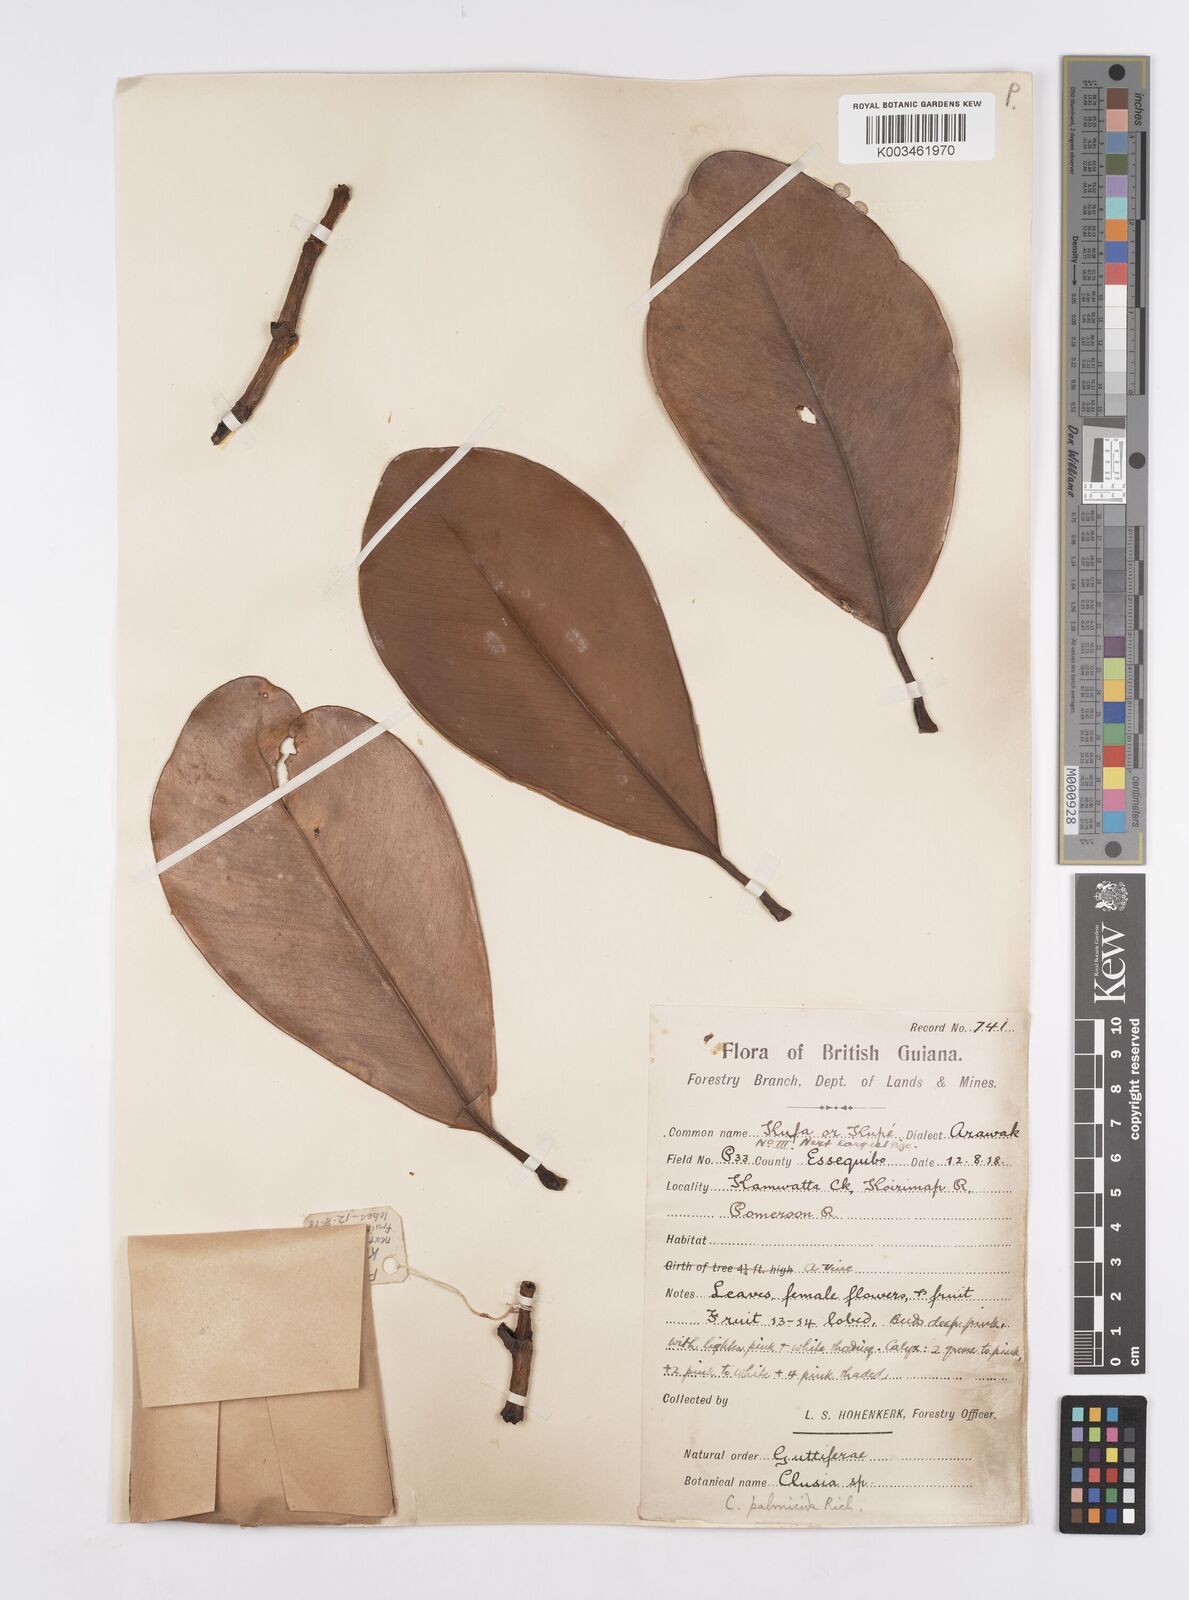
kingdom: Plantae
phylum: Tracheophyta
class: Magnoliopsida
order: Malpighiales
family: Clusiaceae
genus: Clusia
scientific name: Clusia palmicida
